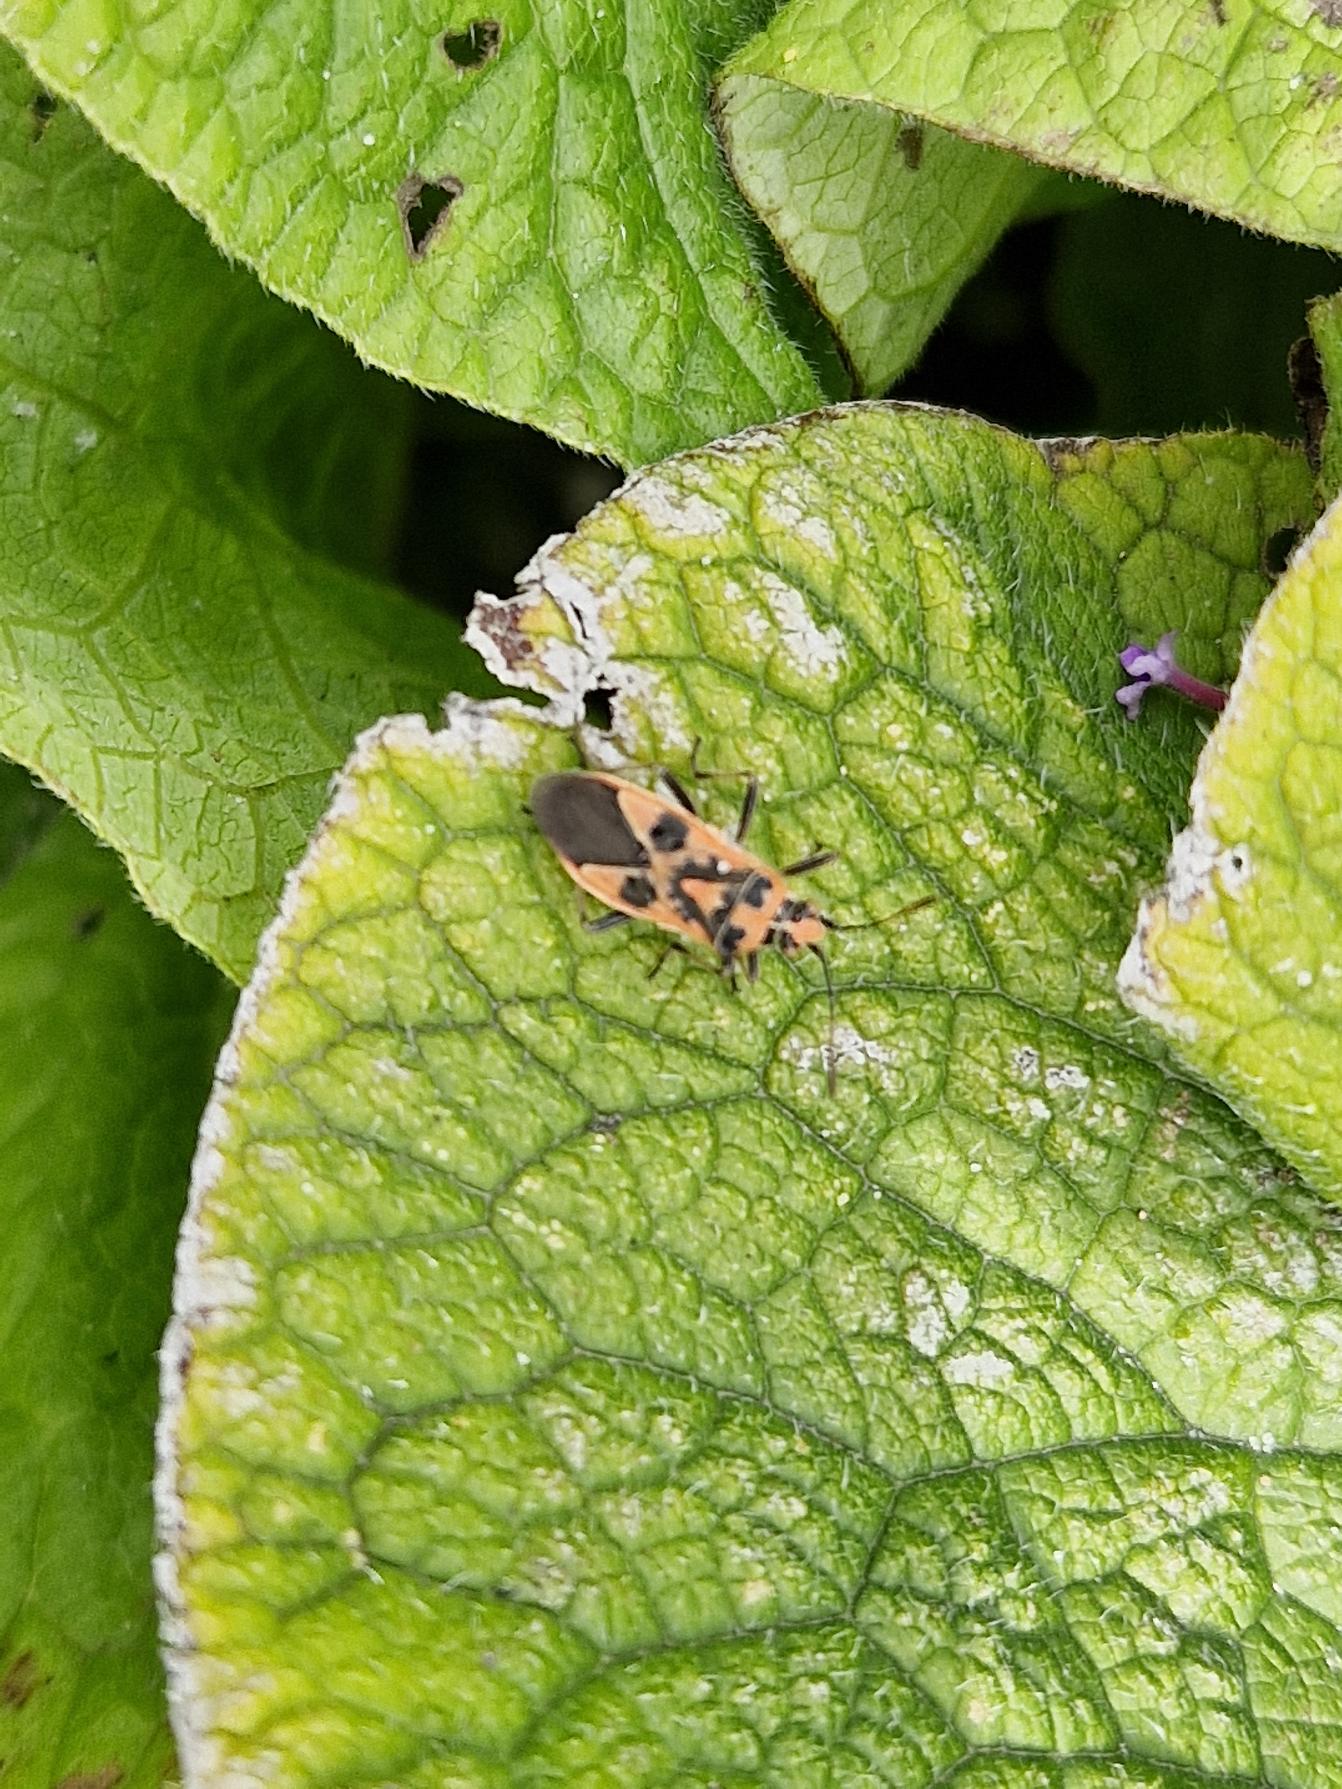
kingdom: Animalia
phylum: Arthropoda
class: Insecta
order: Hemiptera
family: Rhopalidae
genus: Corizus
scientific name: Corizus hyoscyami
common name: Rød kanttæge
